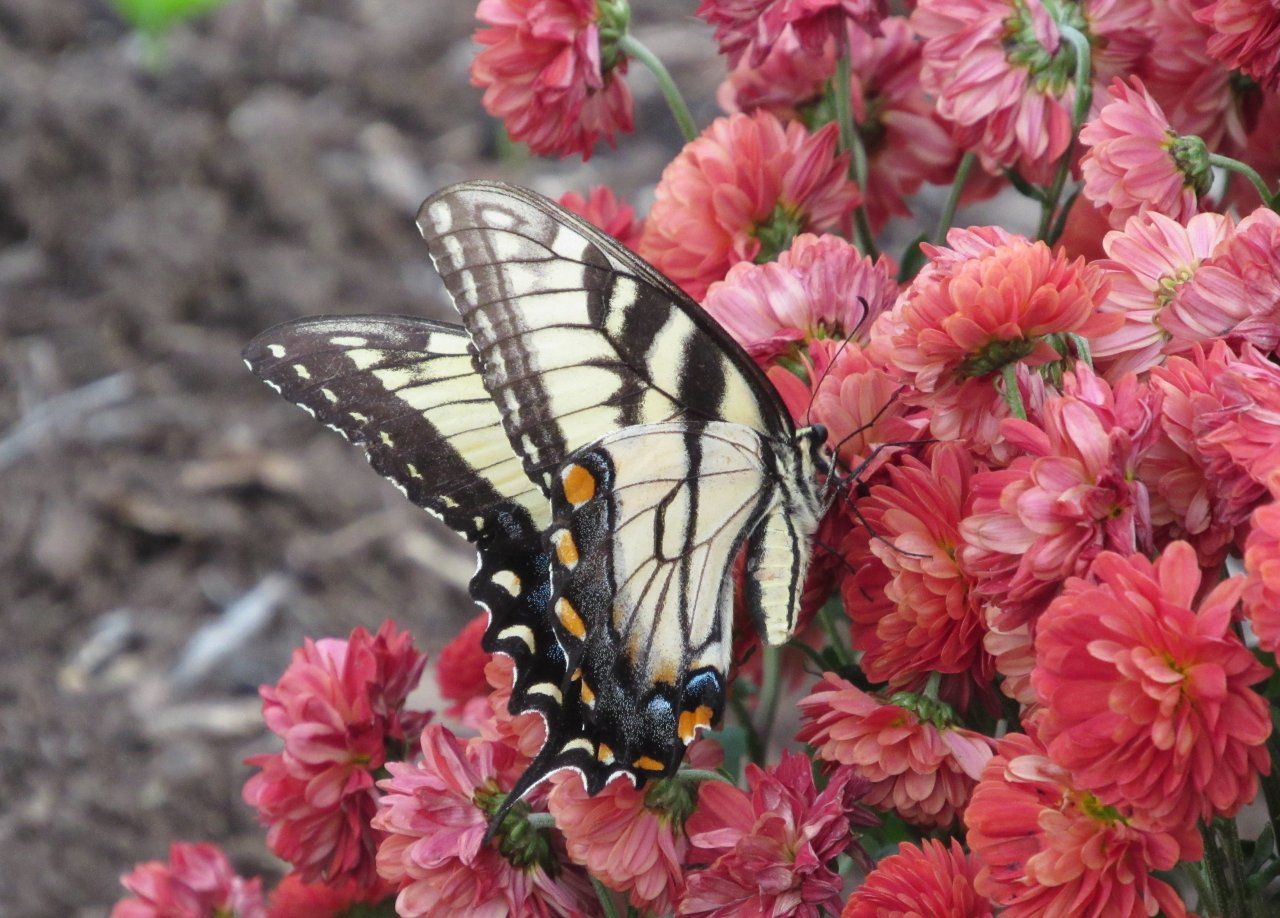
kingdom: Animalia
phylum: Arthropoda
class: Insecta
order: Lepidoptera
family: Papilionidae
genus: Pterourus
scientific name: Pterourus glaucus
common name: Eastern Tiger Swallowtail
